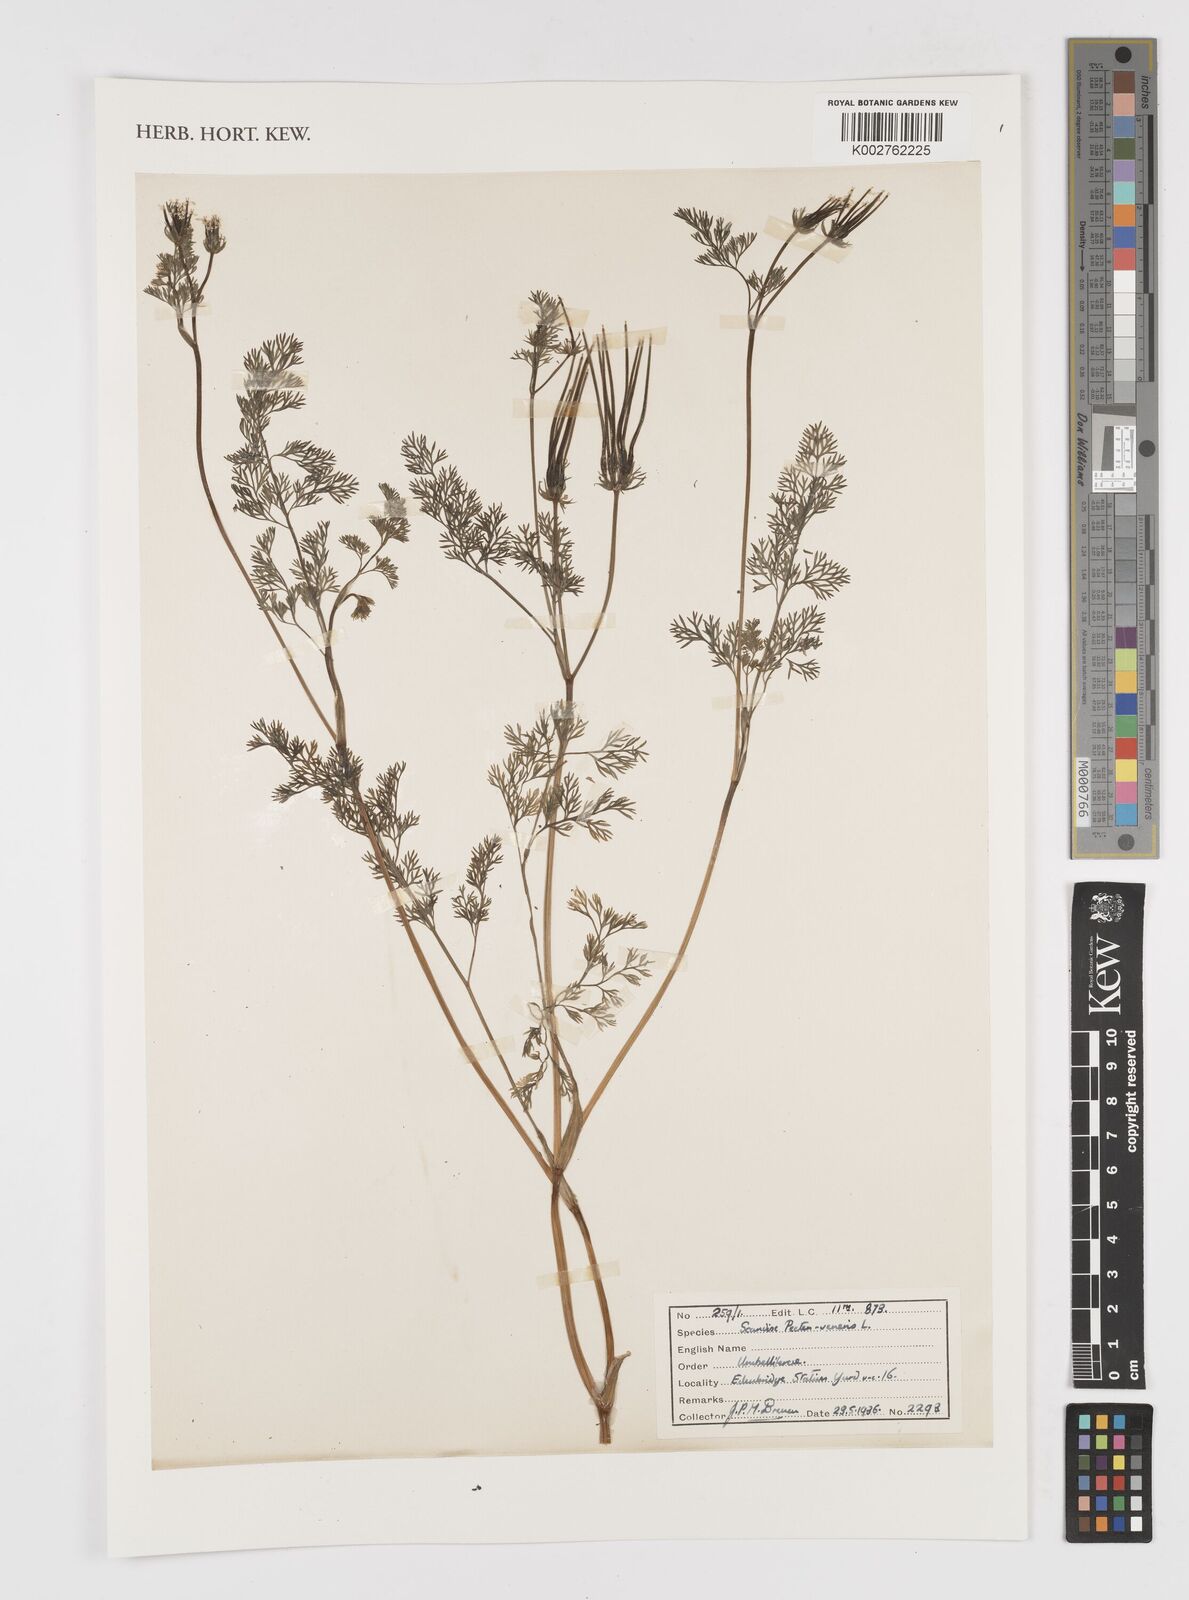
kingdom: Plantae
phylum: Tracheophyta
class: Magnoliopsida
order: Apiales
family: Apiaceae
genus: Scandix
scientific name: Scandix pecten-veneris
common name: Shepherd's-needle
